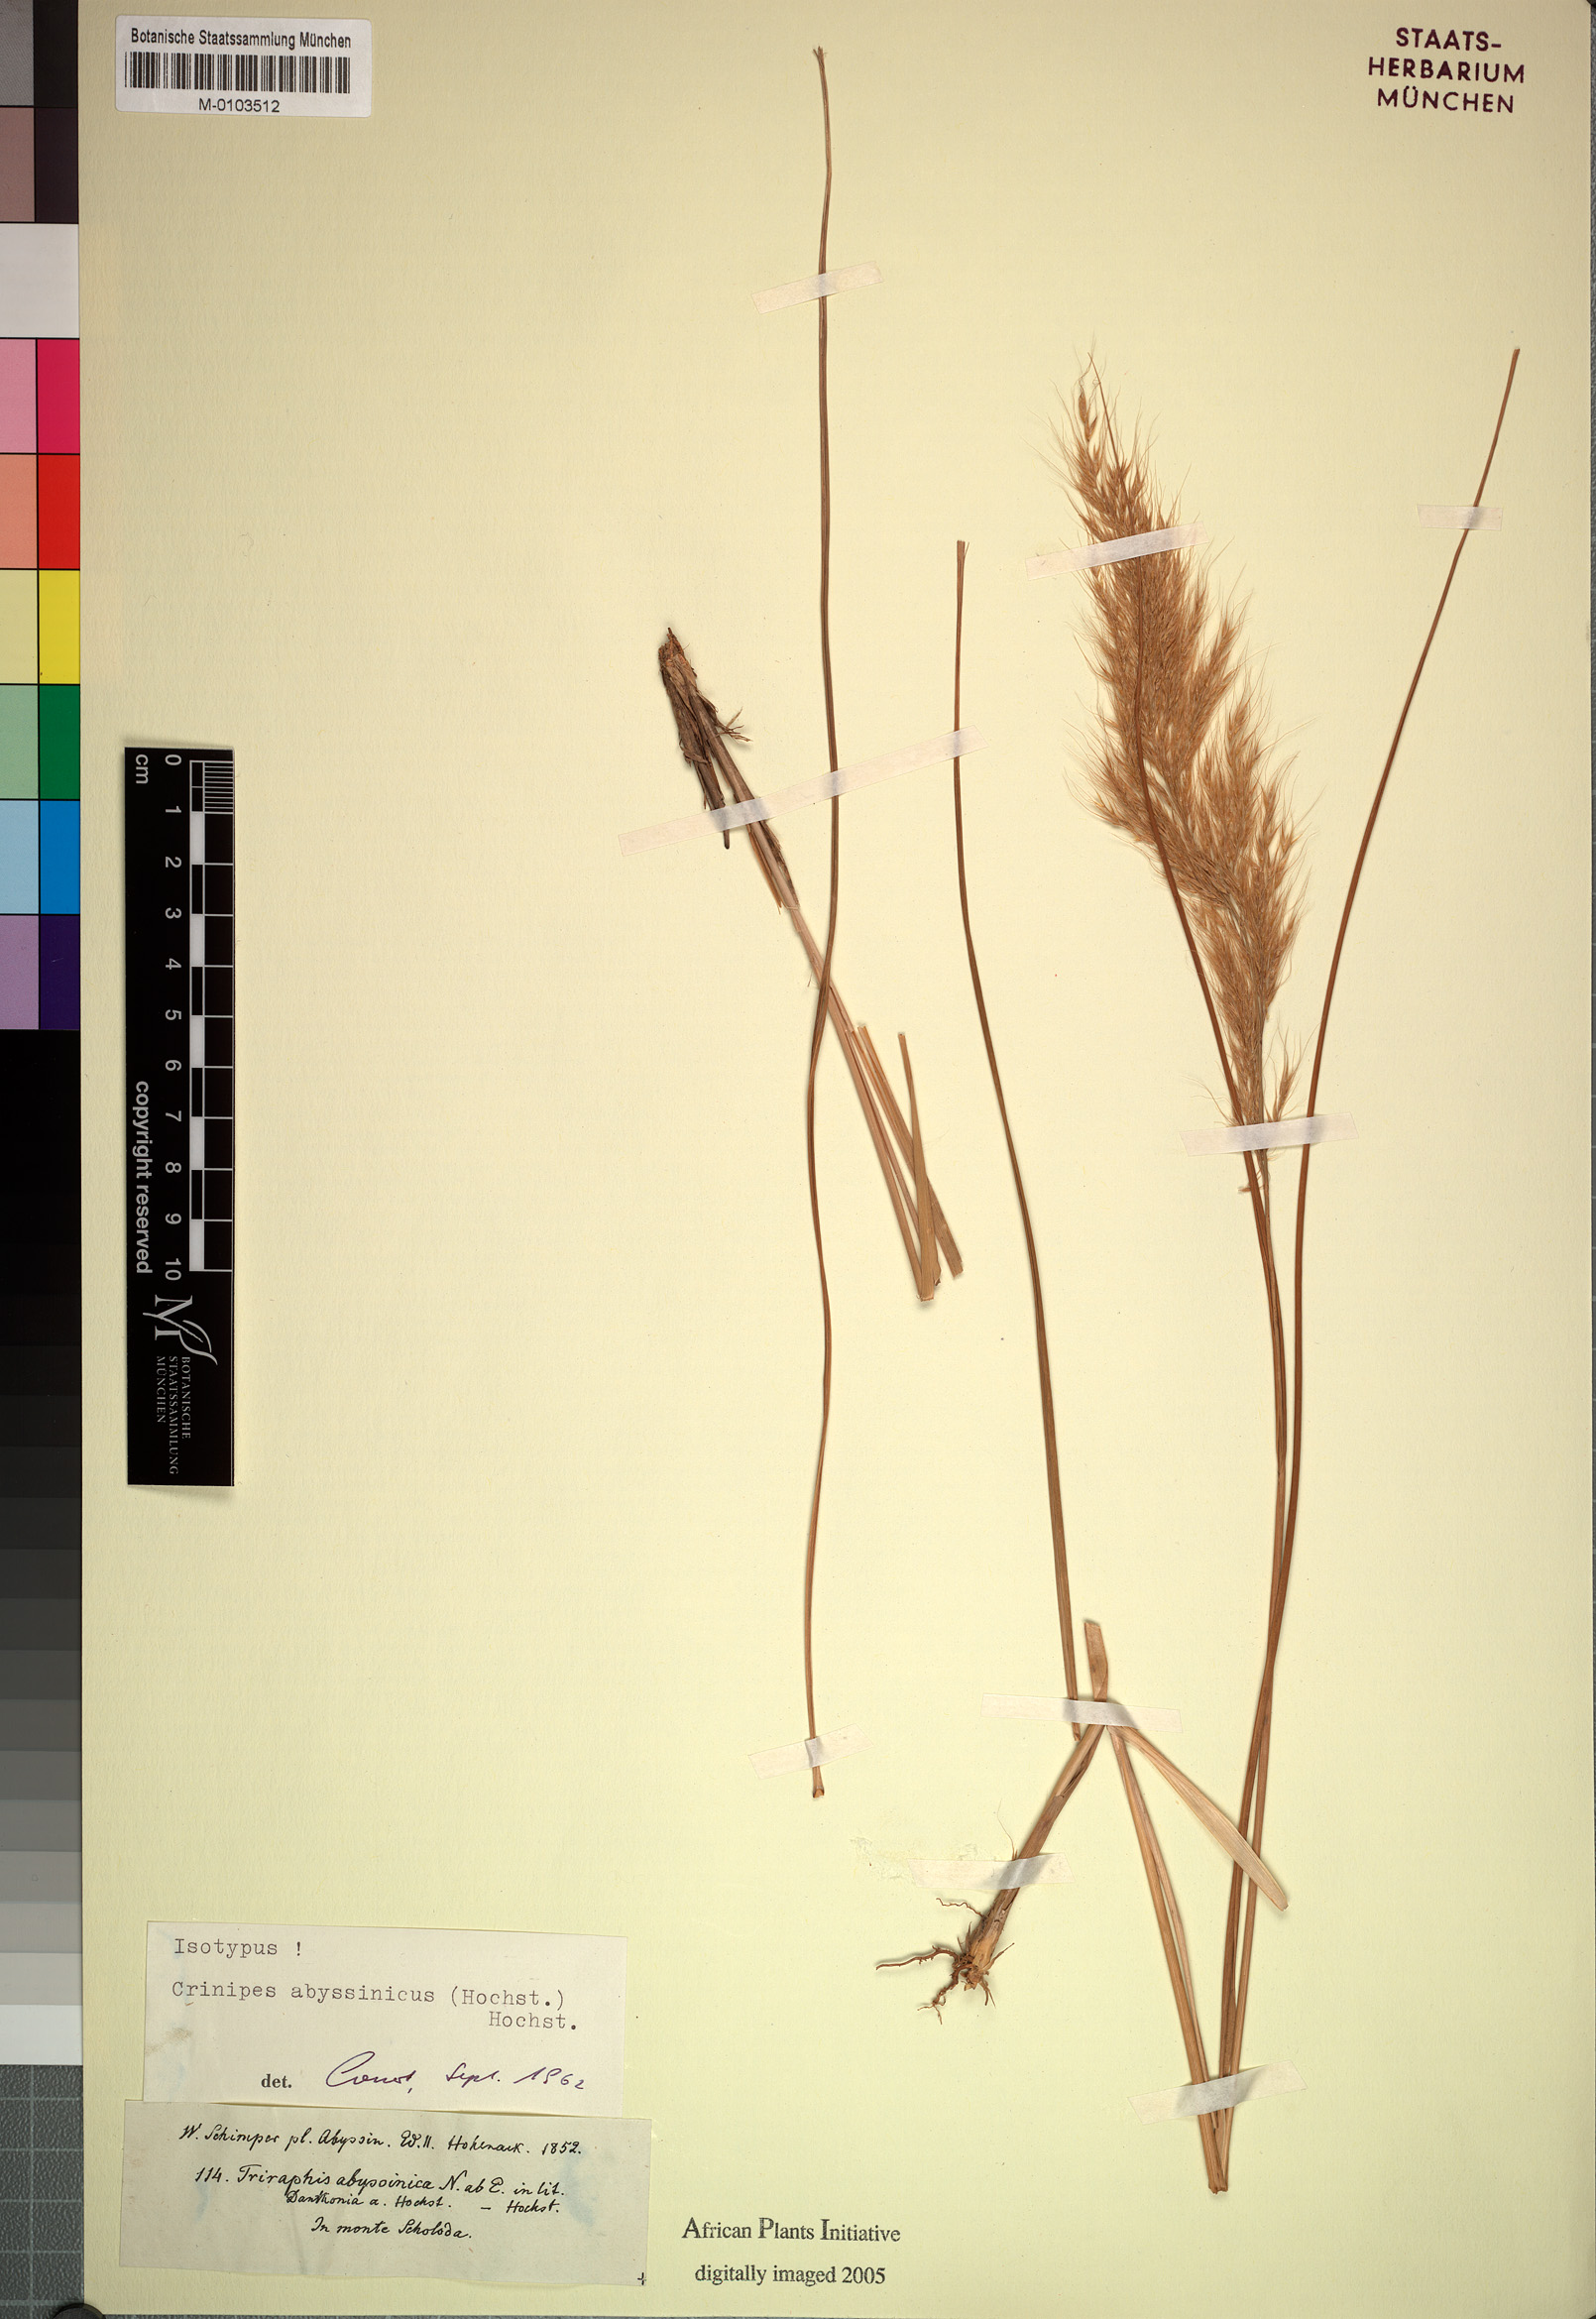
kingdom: Plantae
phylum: Tracheophyta
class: Liliopsida
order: Poales
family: Poaceae
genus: Crinipes
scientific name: Crinipes abyssinicus
